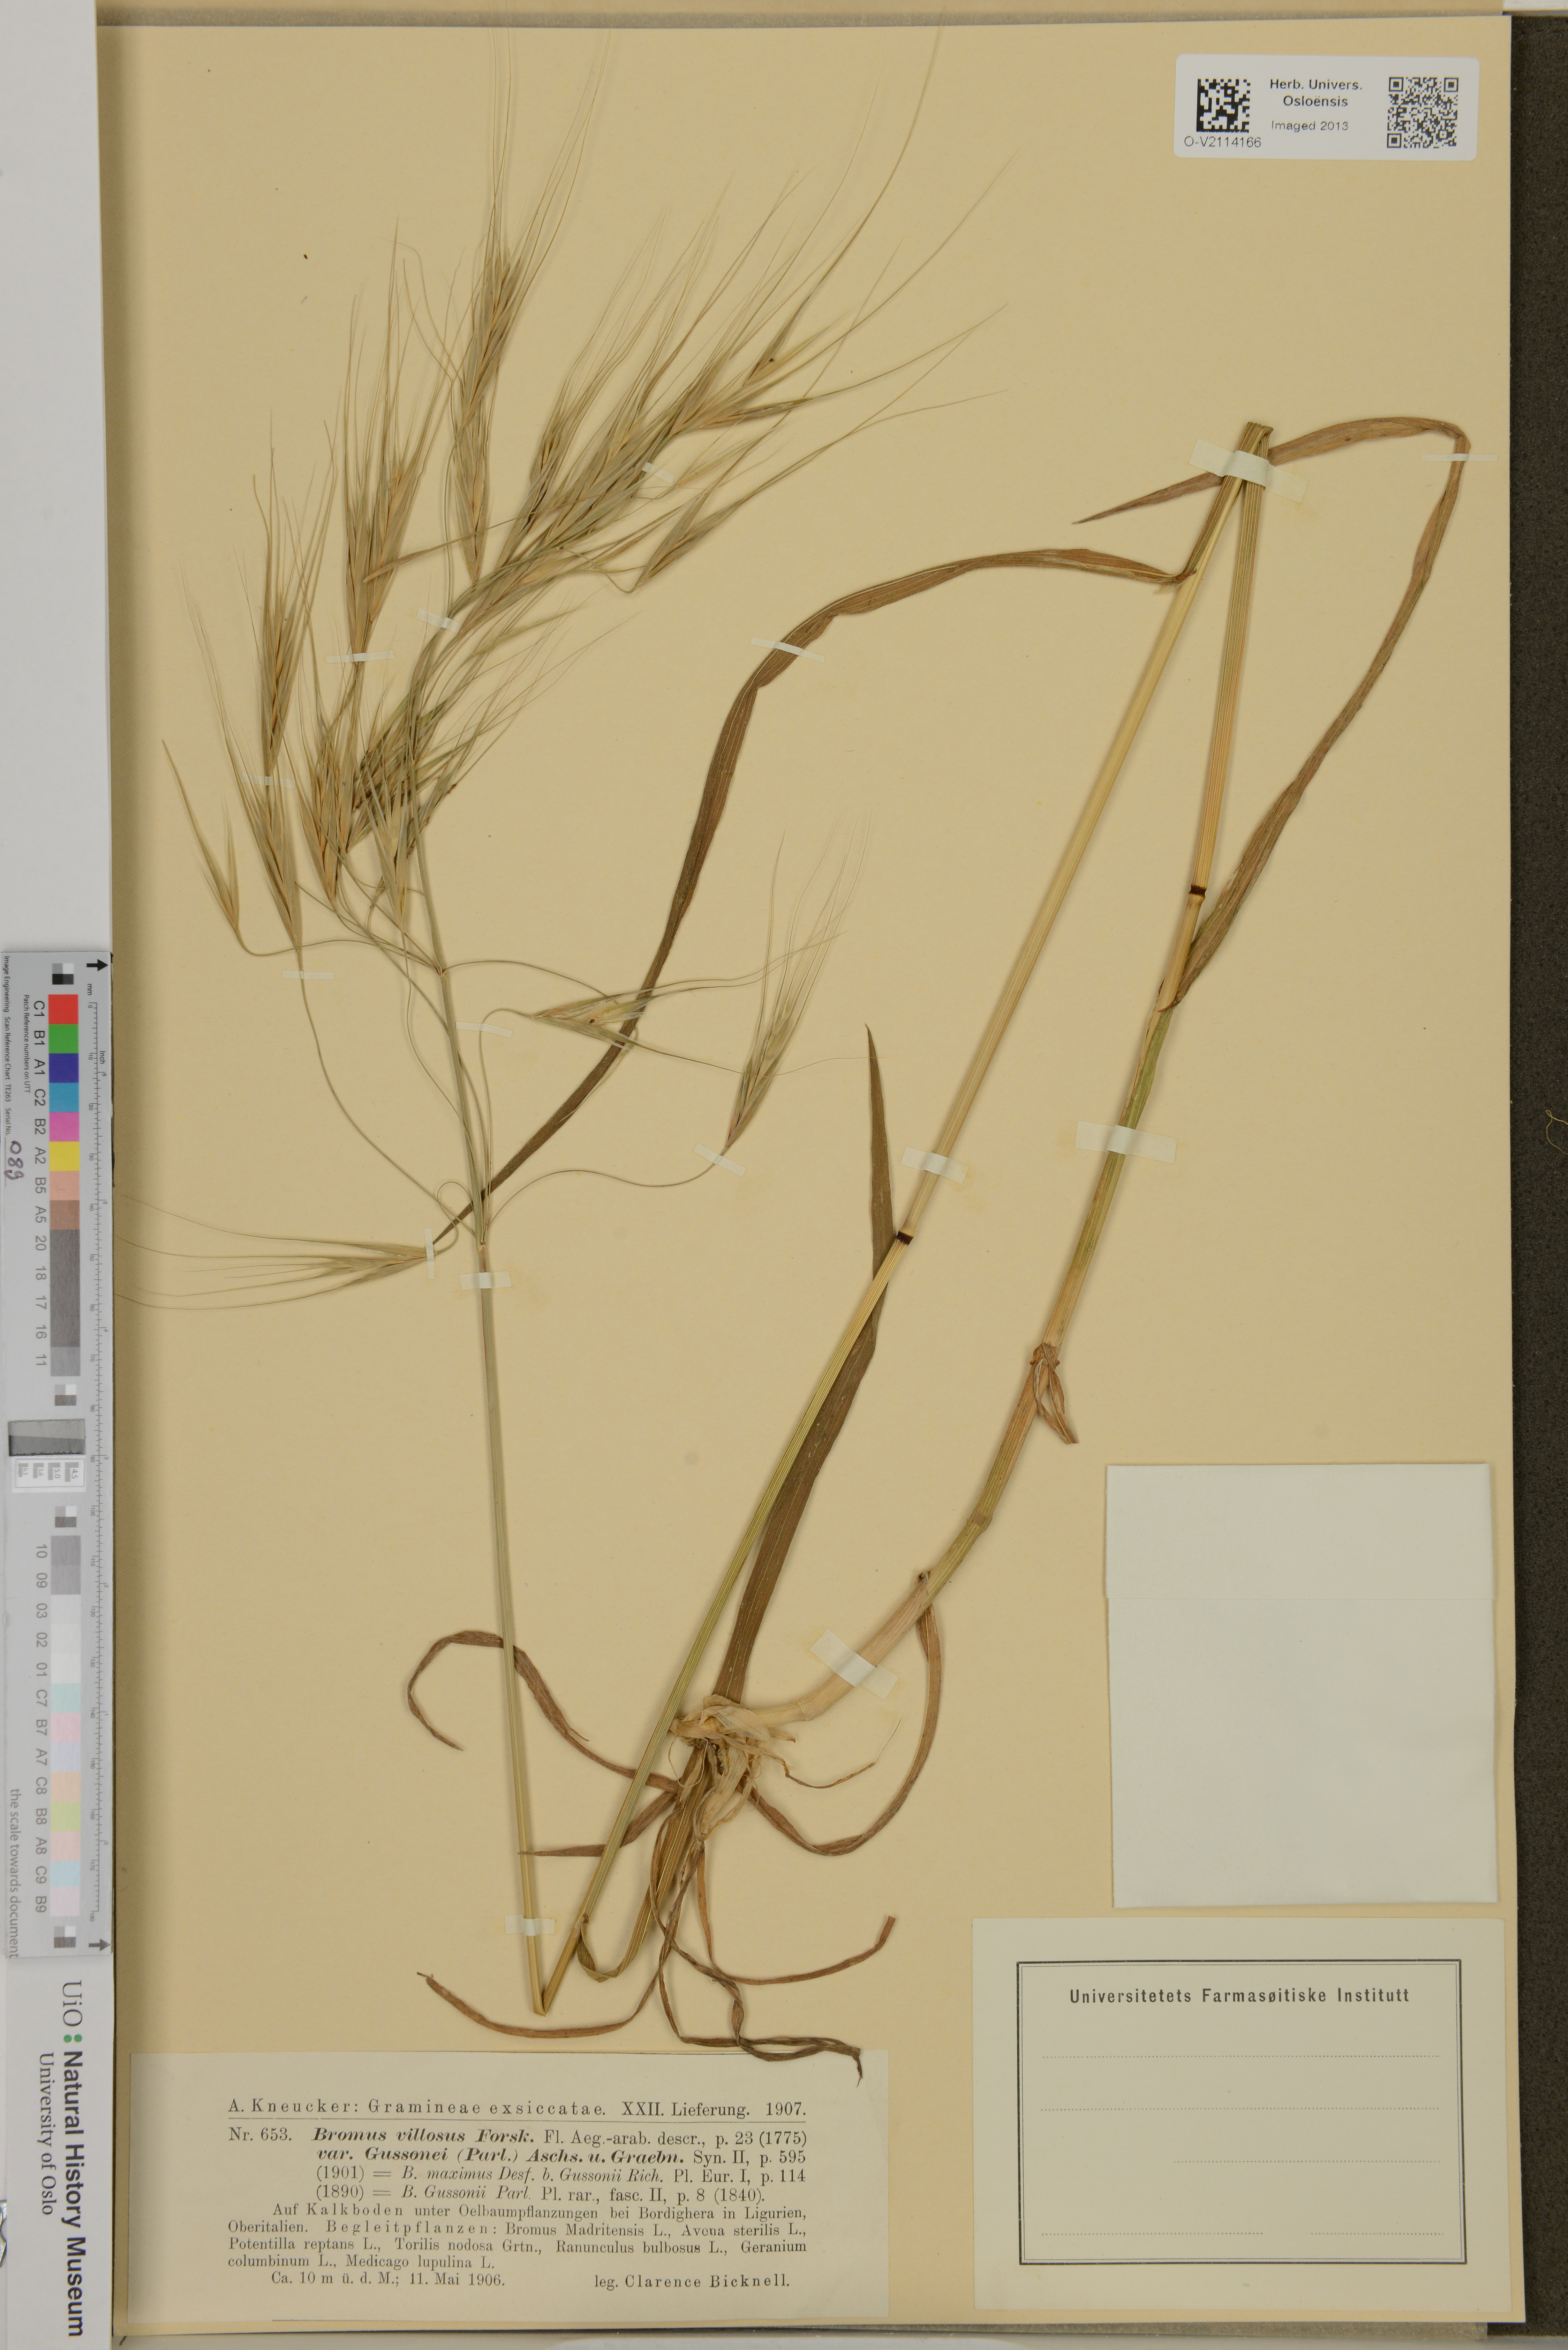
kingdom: Plantae
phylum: Tracheophyta
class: Liliopsida
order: Poales
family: Poaceae
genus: Bromus
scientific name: Bromus diandrus
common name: Ripgut brome
